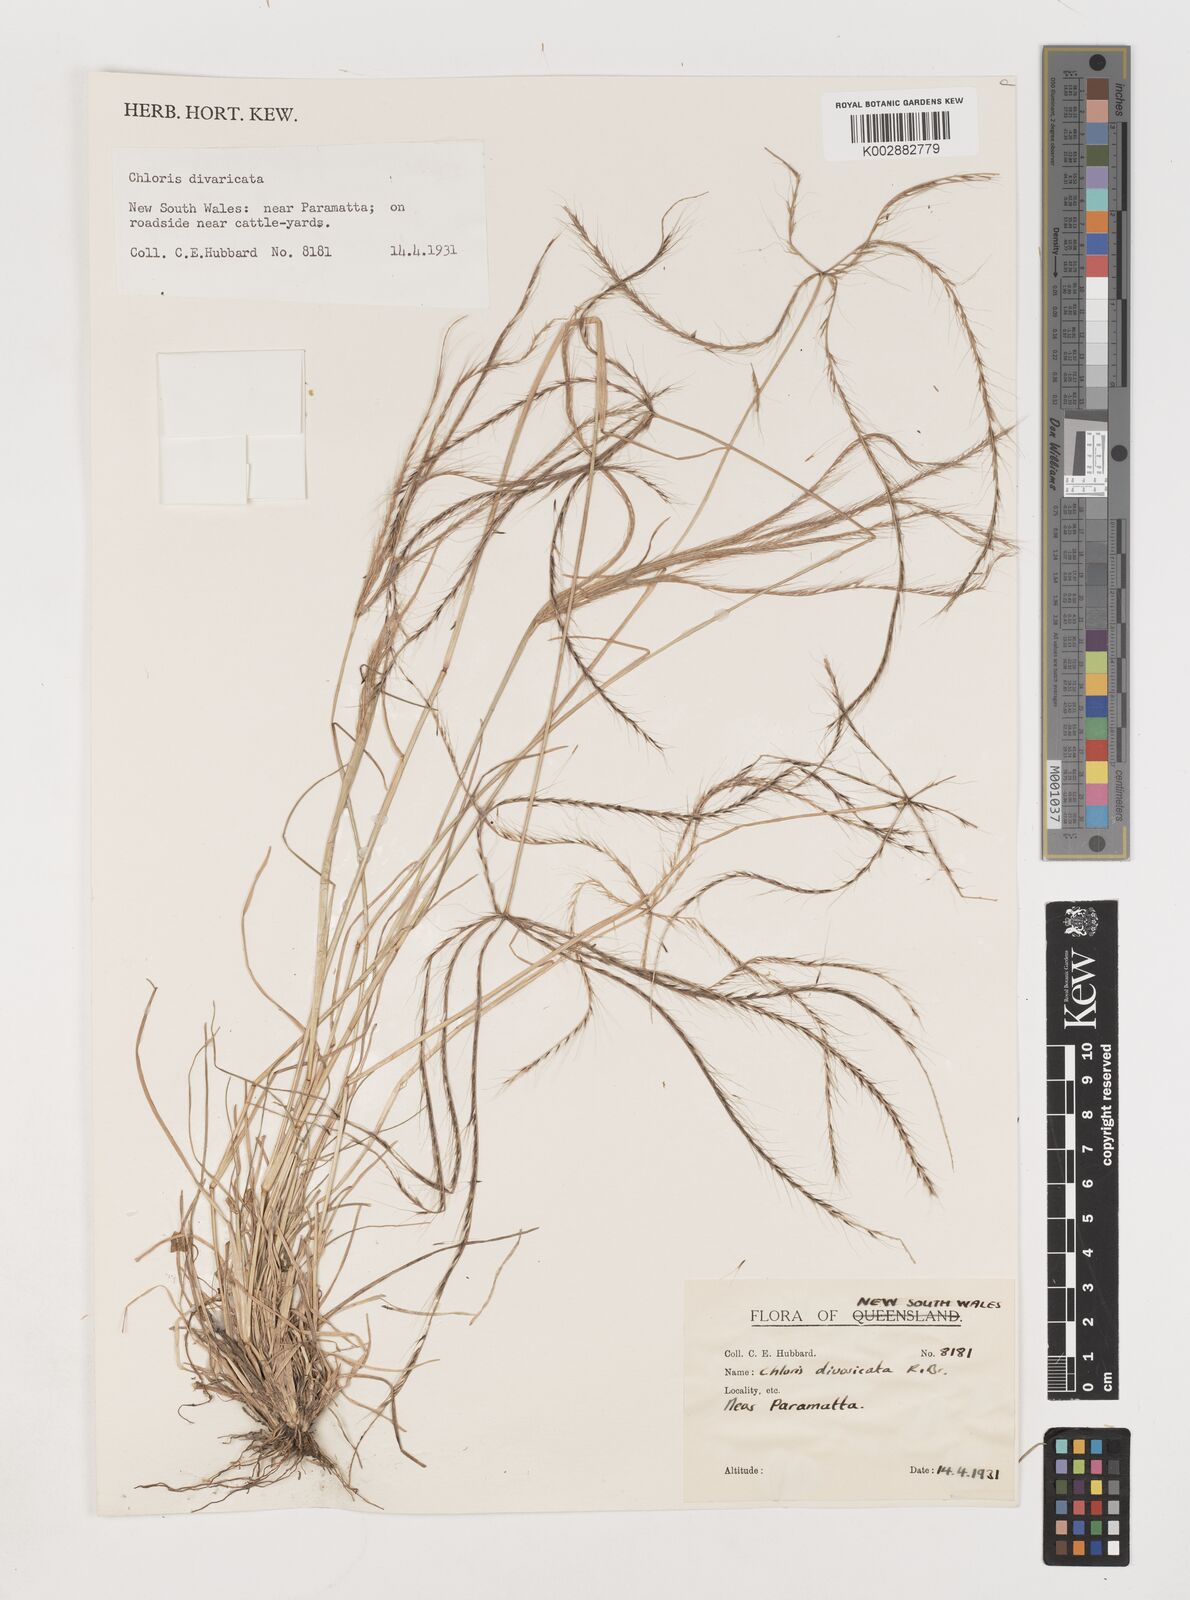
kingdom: Plantae
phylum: Tracheophyta
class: Liliopsida
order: Poales
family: Poaceae
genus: Chloris
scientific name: Chloris divaricata
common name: Spreading windmill grass
